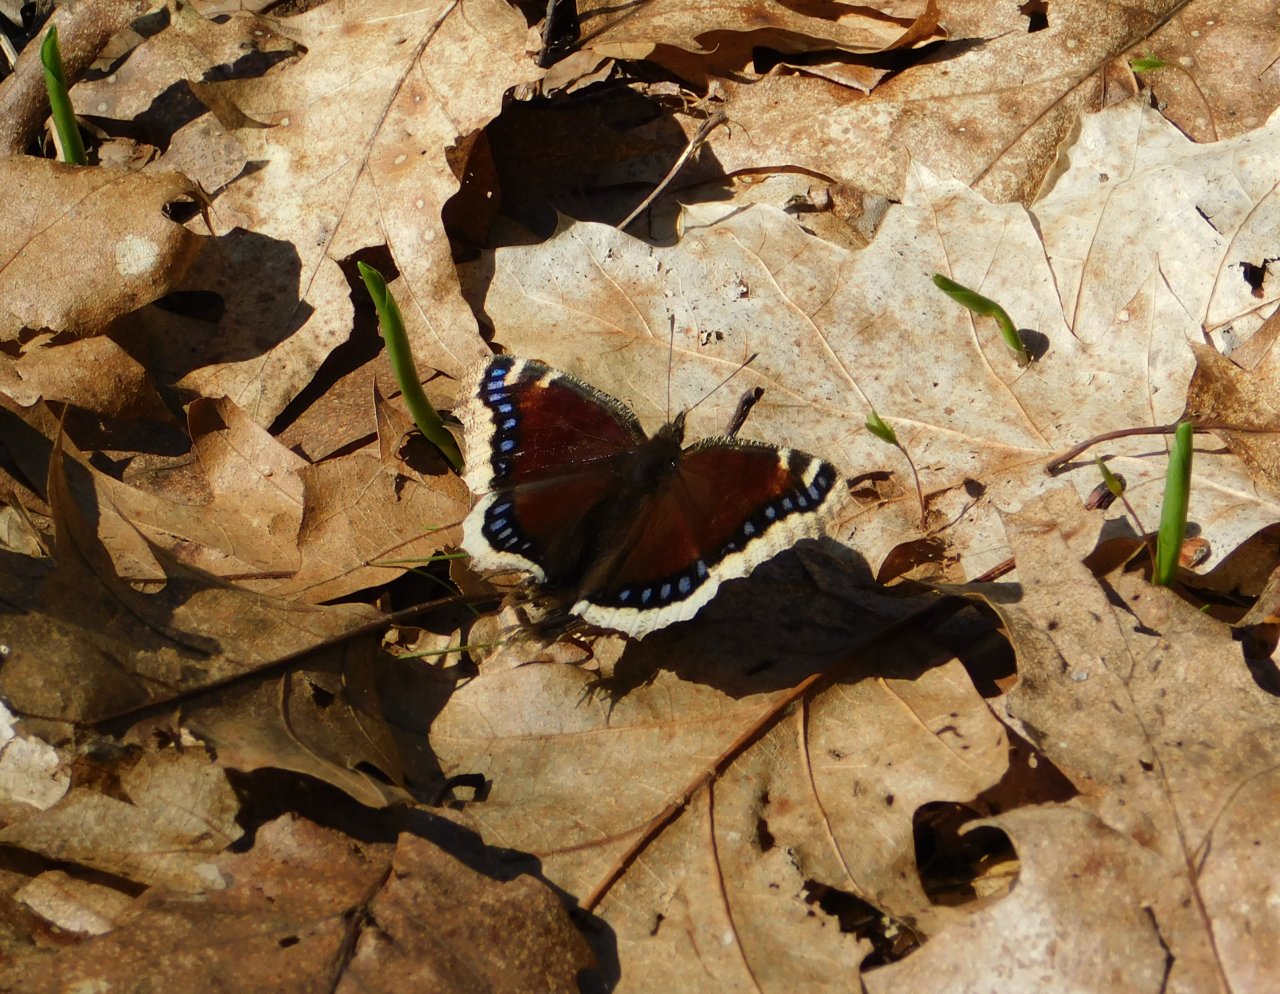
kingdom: Animalia
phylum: Arthropoda
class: Insecta
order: Lepidoptera
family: Nymphalidae
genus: Nymphalis
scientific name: Nymphalis antiopa
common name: Mourning Cloak
